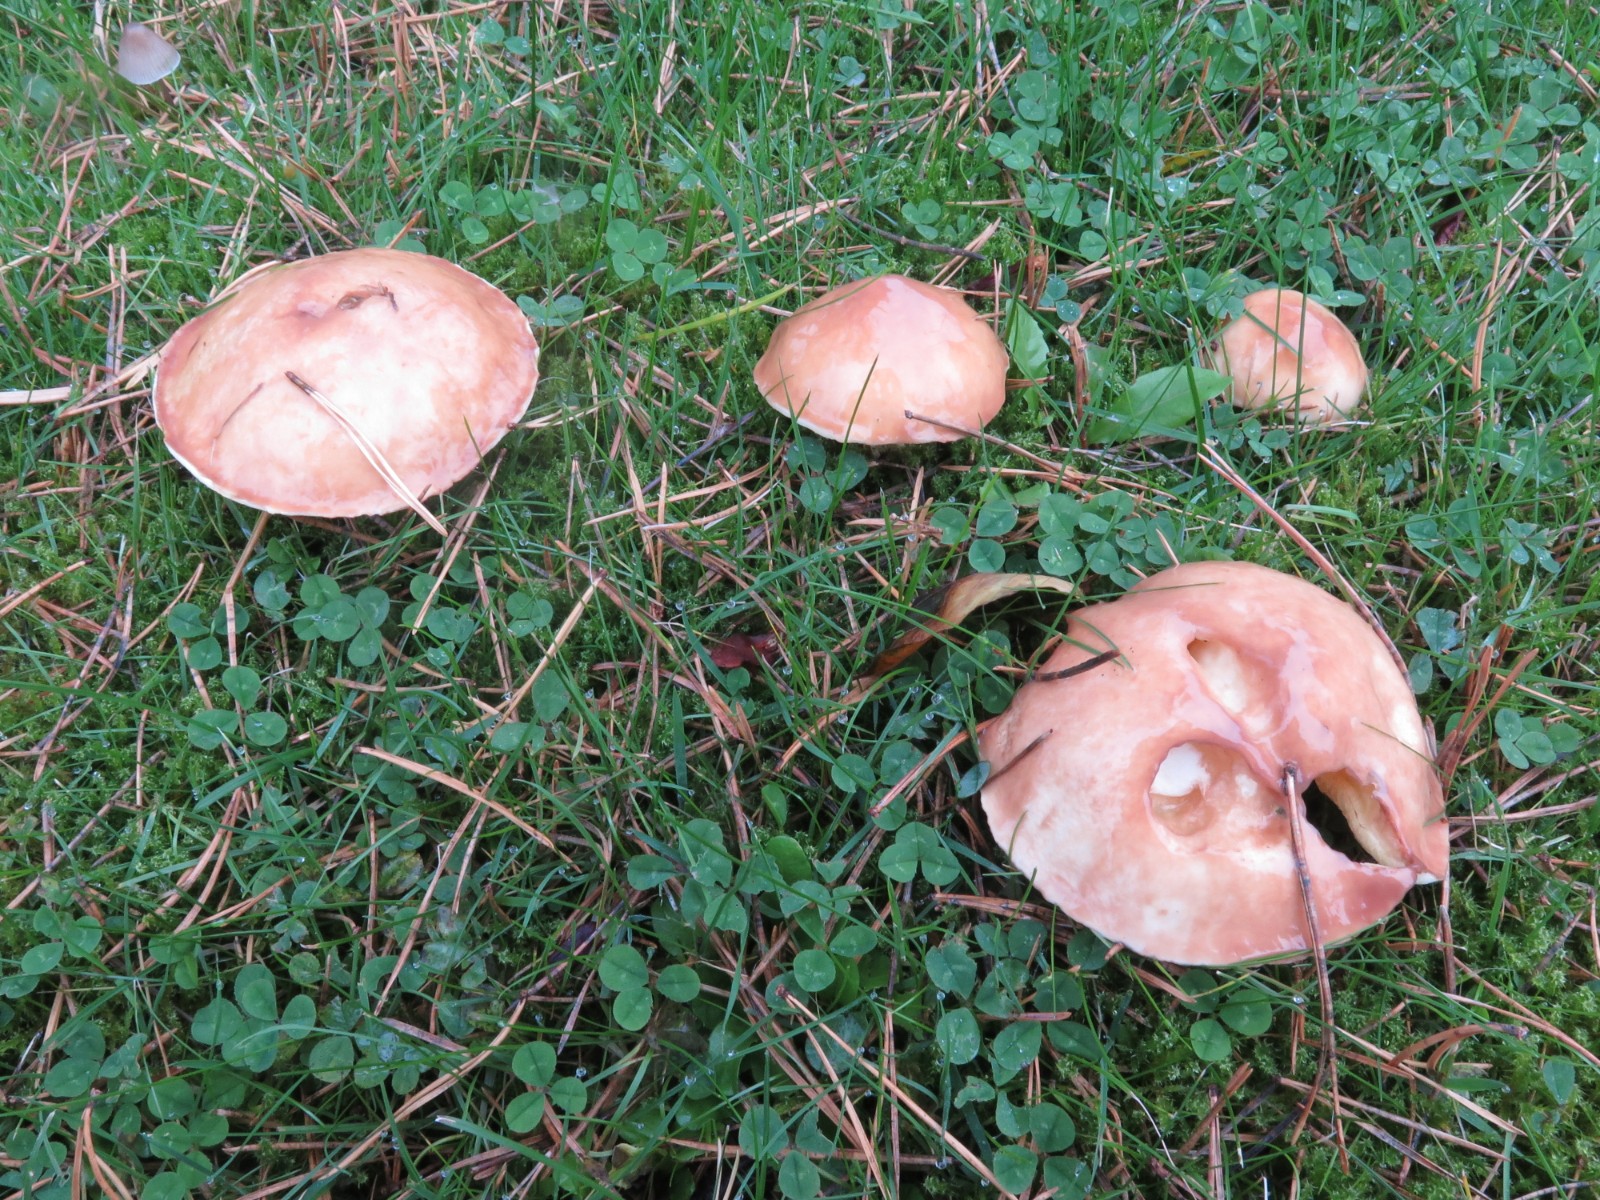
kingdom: Fungi
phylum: Basidiomycota
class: Agaricomycetes
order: Boletales
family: Suillaceae
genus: Suillus
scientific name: Suillus granulatus
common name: kornet slimrørhat
